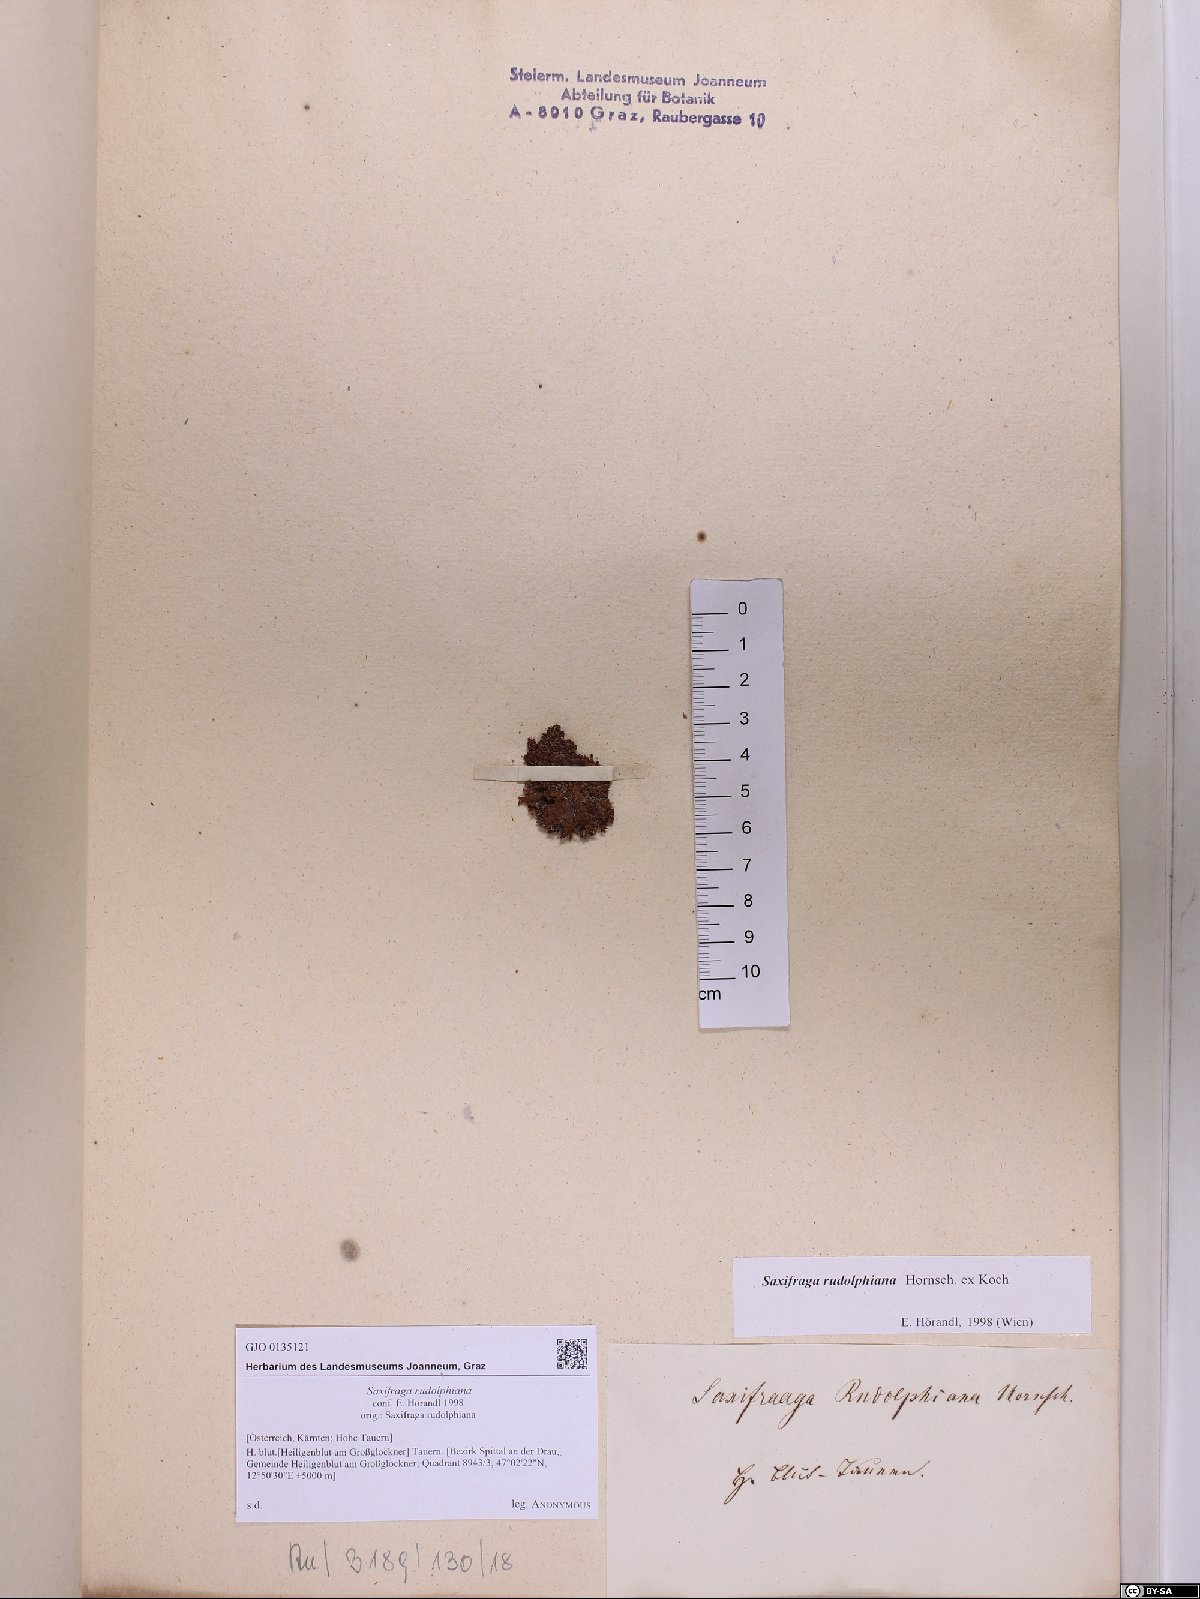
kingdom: Plantae
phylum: Tracheophyta
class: Magnoliopsida
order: Saxifragales
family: Saxifragaceae
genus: Saxifraga
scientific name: Saxifraga oppositifolia
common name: Purple saxifrage
